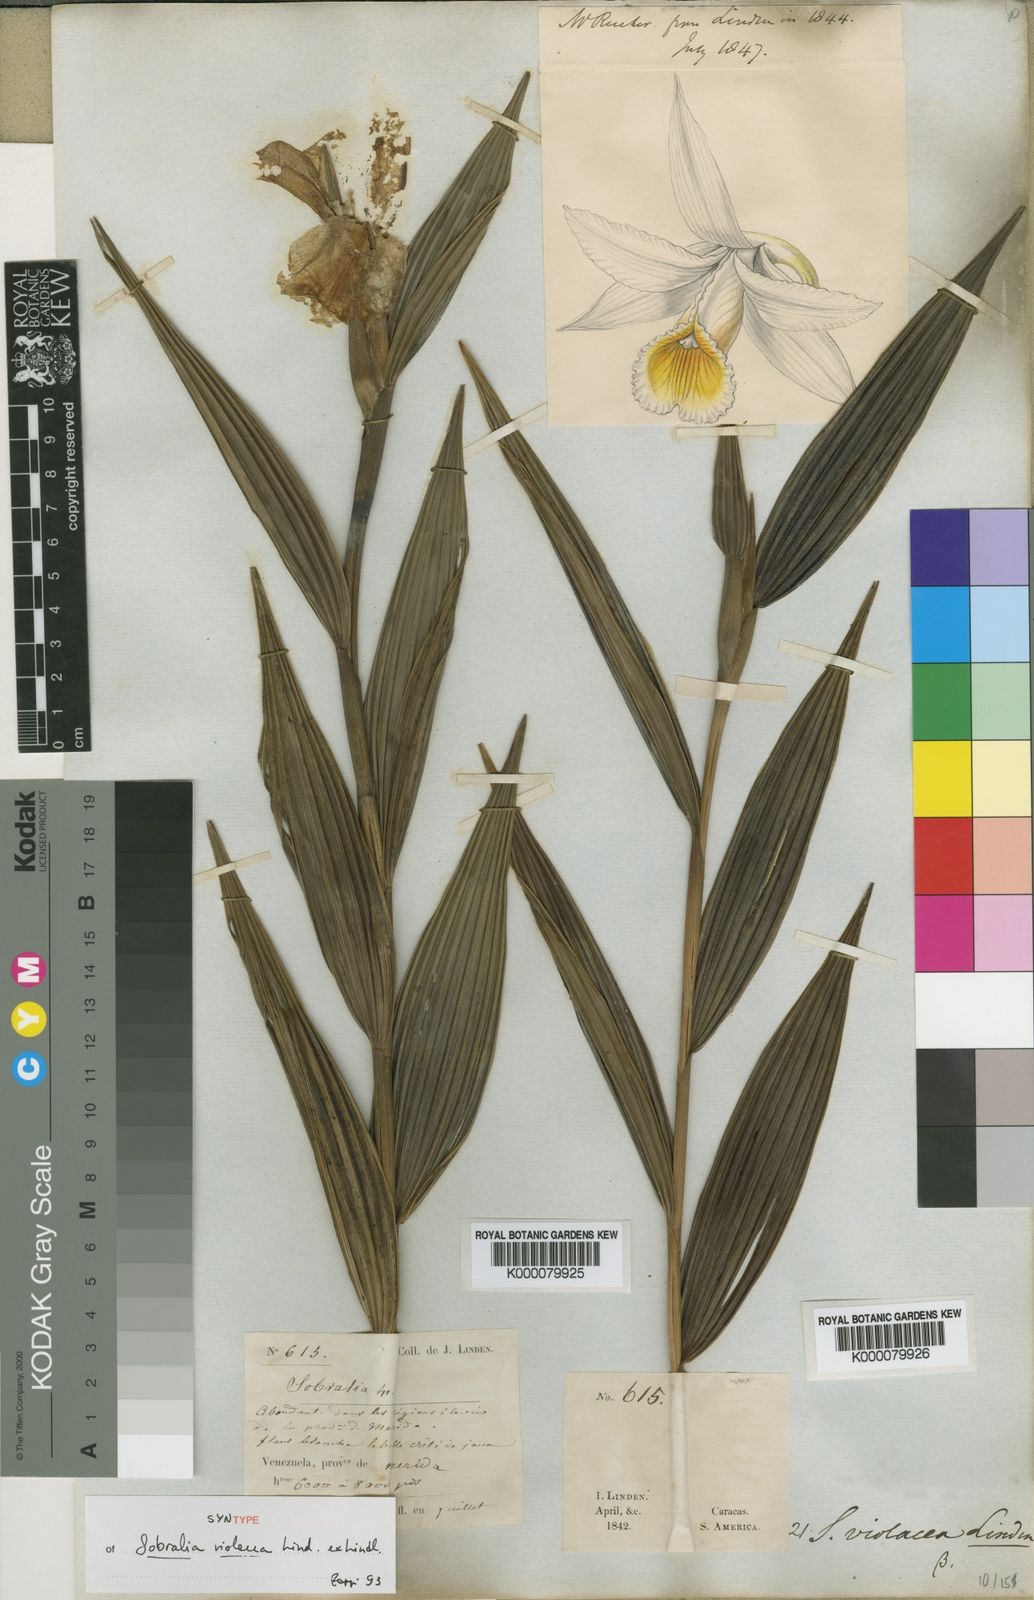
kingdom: Plantae
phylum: Tracheophyta
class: Liliopsida
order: Asparagales
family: Orchidaceae
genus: Sobralia
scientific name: Sobralia violacea
